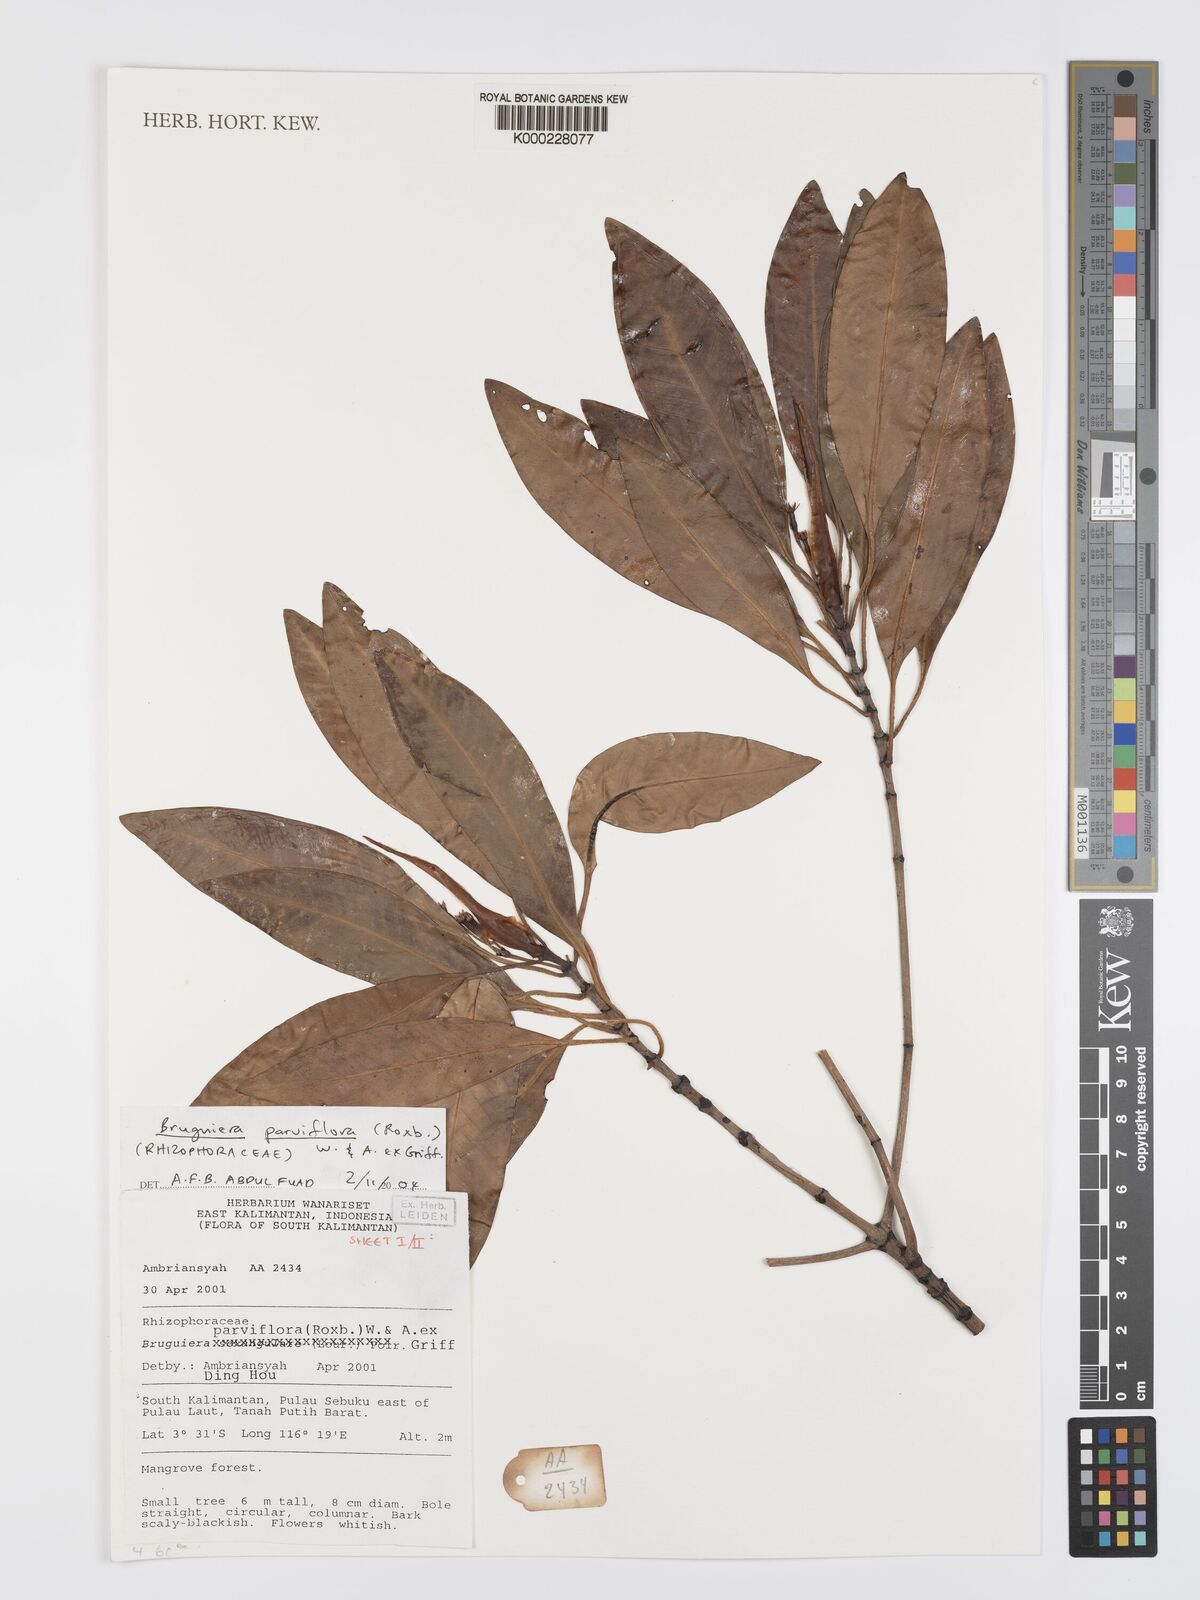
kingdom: Plantae
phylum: Tracheophyta
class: Magnoliopsida
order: Malpighiales
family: Rhizophoraceae
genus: Bruguiera
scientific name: Bruguiera parviflora
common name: Smallflower bruguiera
